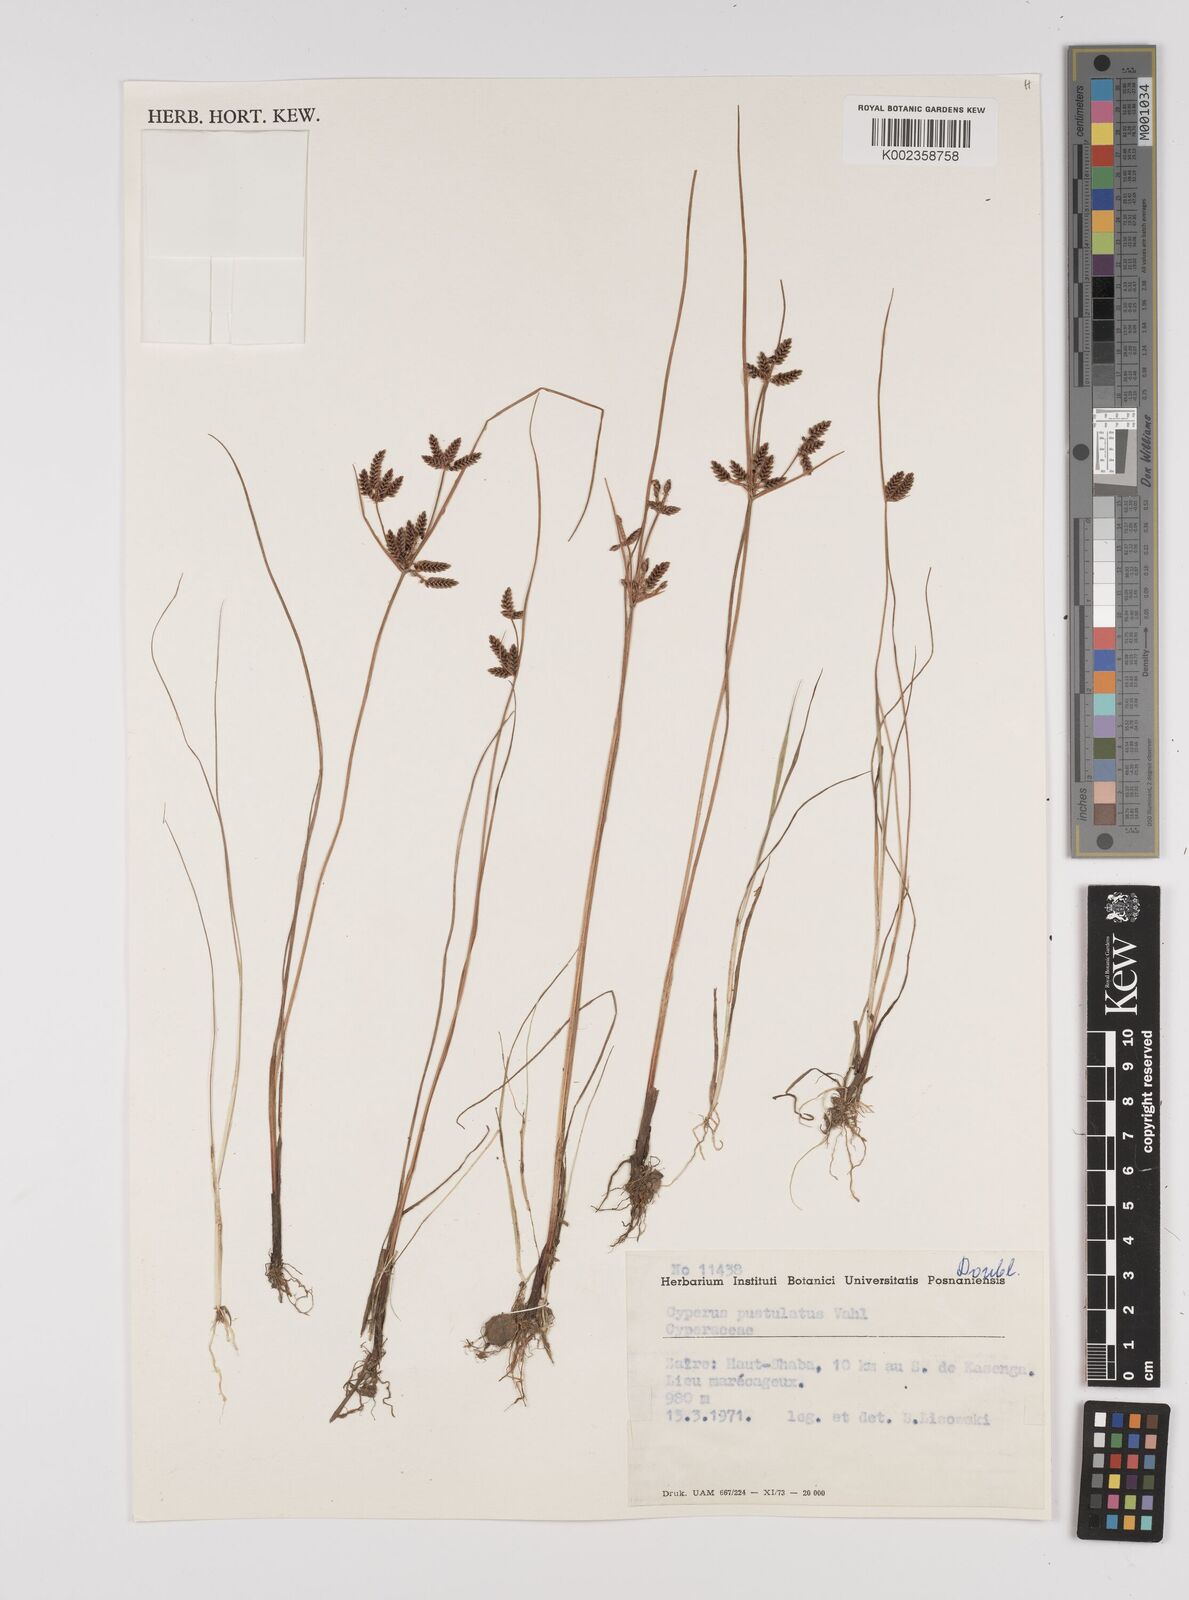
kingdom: Plantae
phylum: Tracheophyta
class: Liliopsida
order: Poales
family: Cyperaceae
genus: Cyperus
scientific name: Cyperus pustulatus
